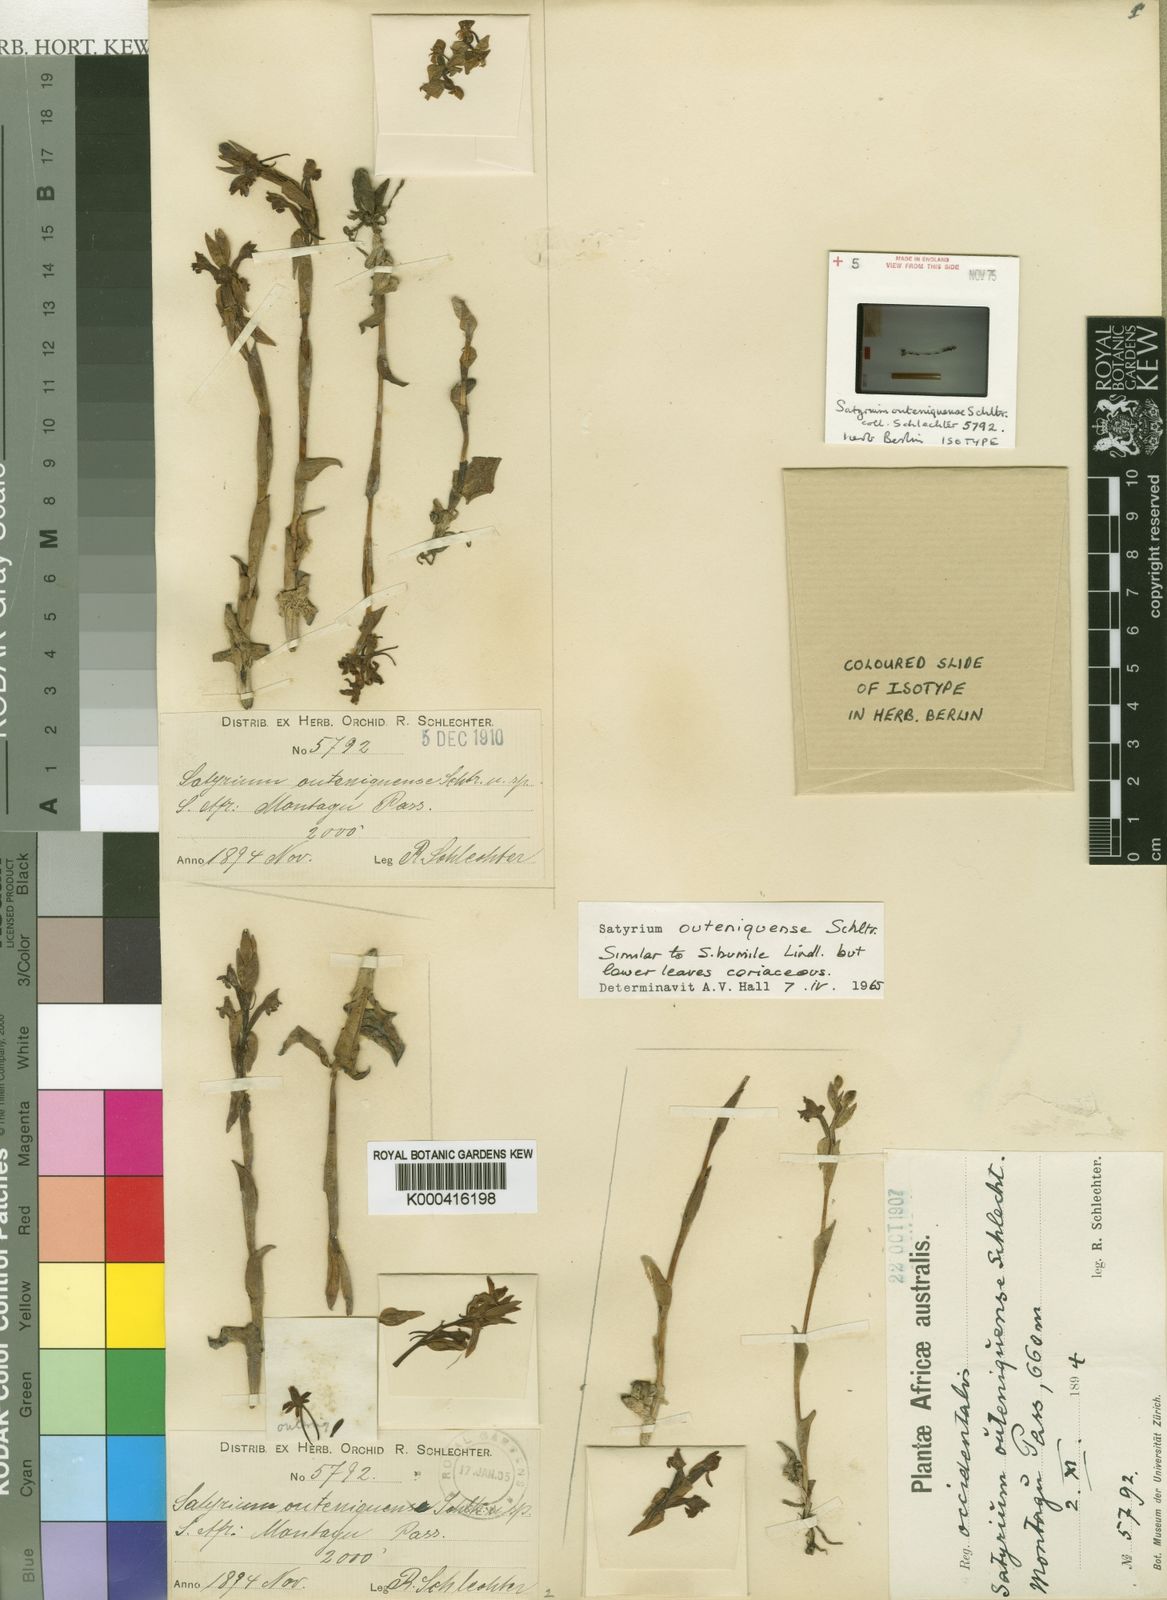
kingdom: Plantae
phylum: Tracheophyta
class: Liliopsida
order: Asparagales
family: Orchidaceae
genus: Satyrium
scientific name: Satyrium outeniquense
